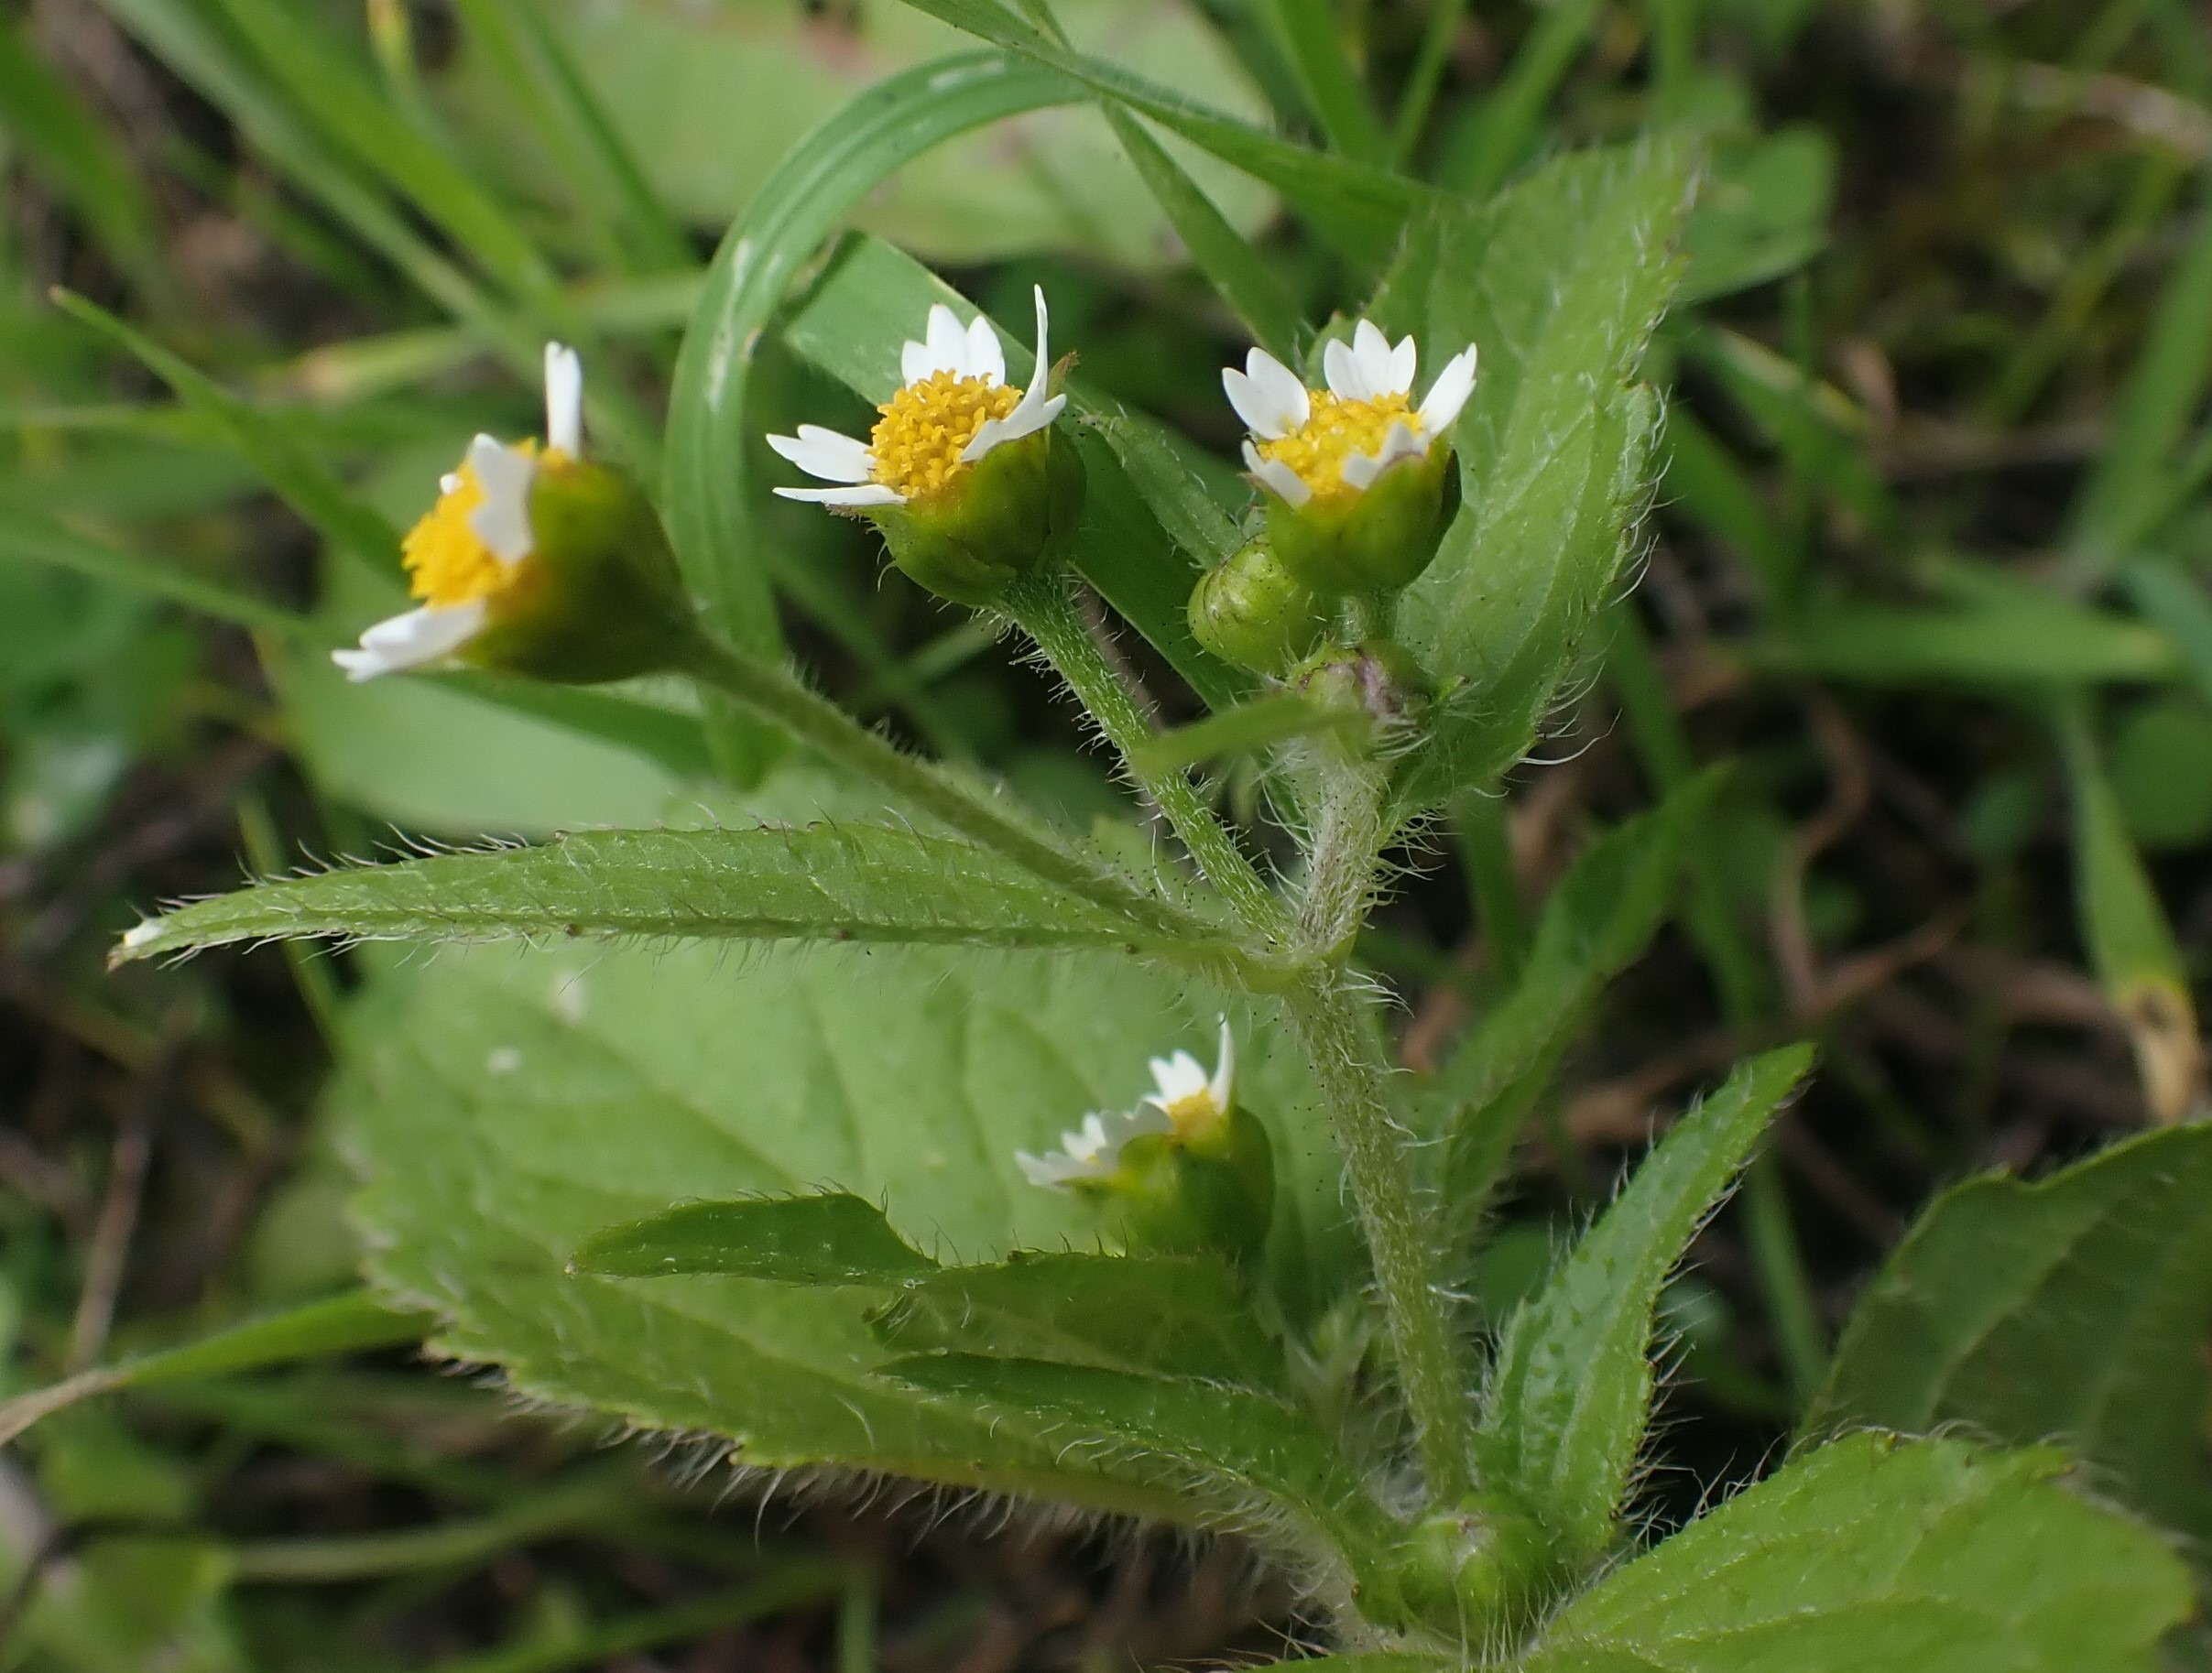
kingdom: Plantae
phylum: Tracheophyta
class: Magnoliopsida
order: Asterales
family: Asteraceae
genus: Galinsoga
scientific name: Galinsoga quadriradiata
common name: Kirtel-kortstråle
